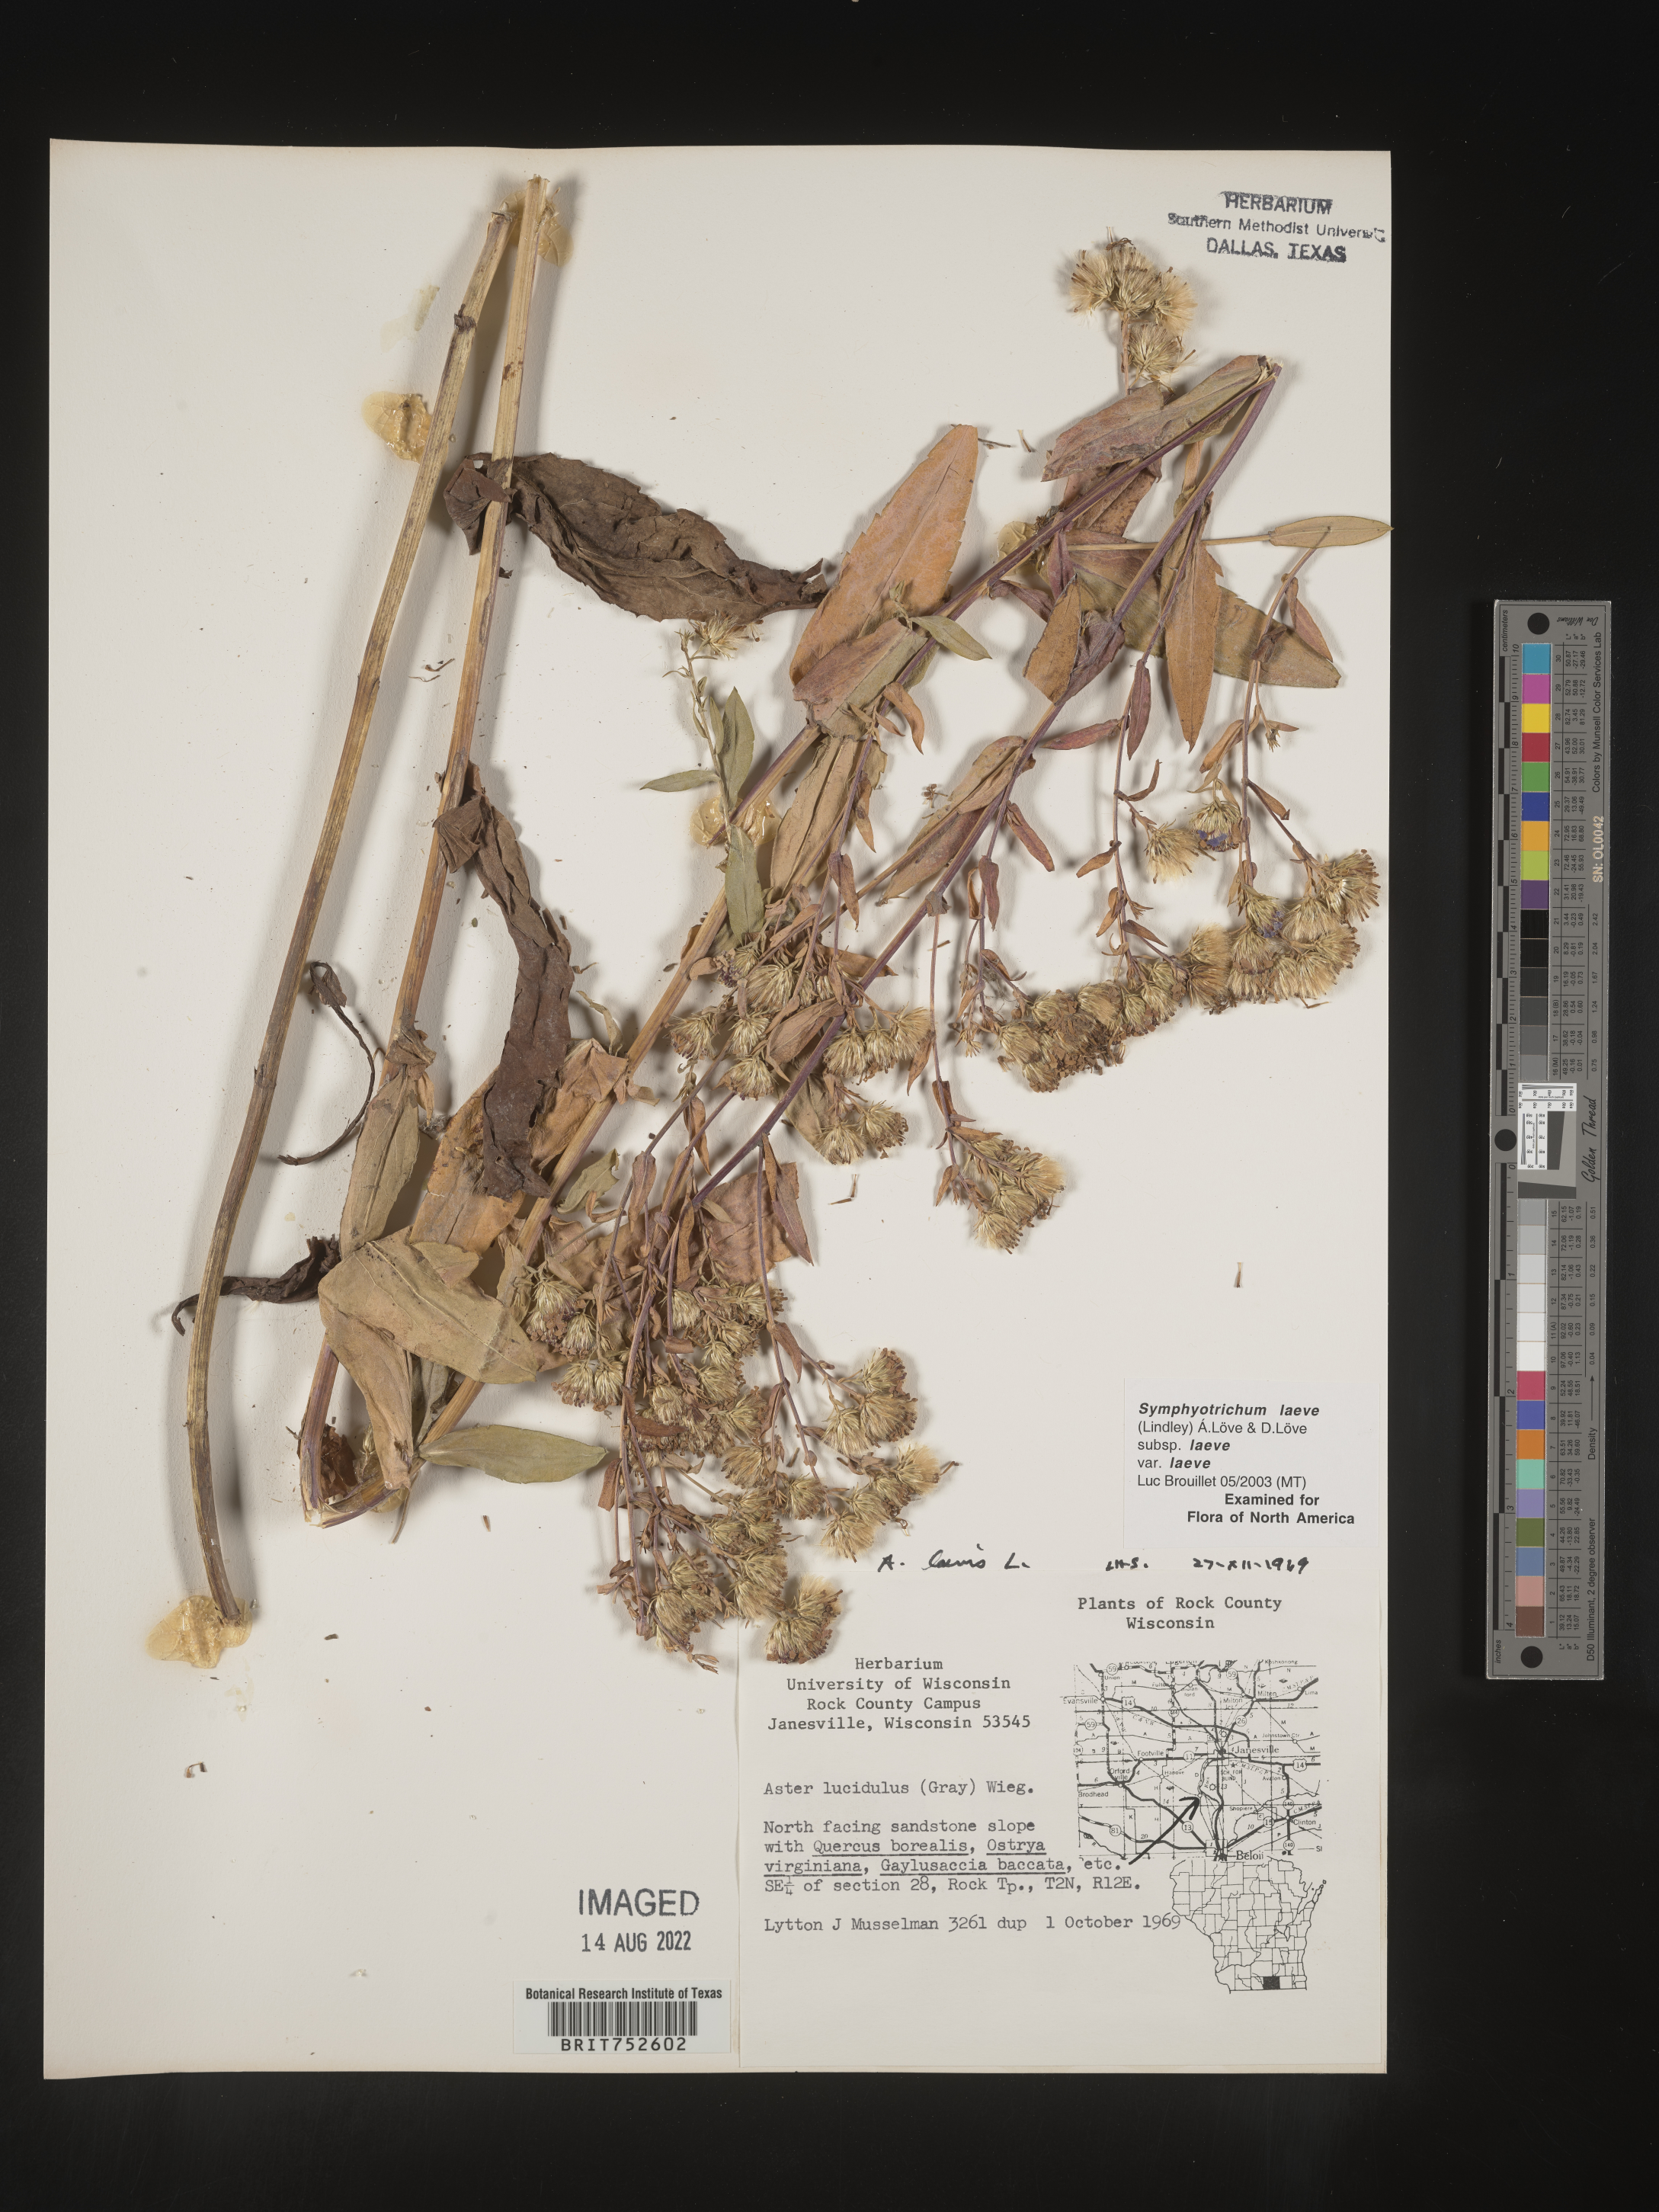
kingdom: Plantae
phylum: Tracheophyta
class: Magnoliopsida
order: Asterales
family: Asteraceae
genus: Symphyotrichum
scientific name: Symphyotrichum laeve
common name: Glaucous aster
